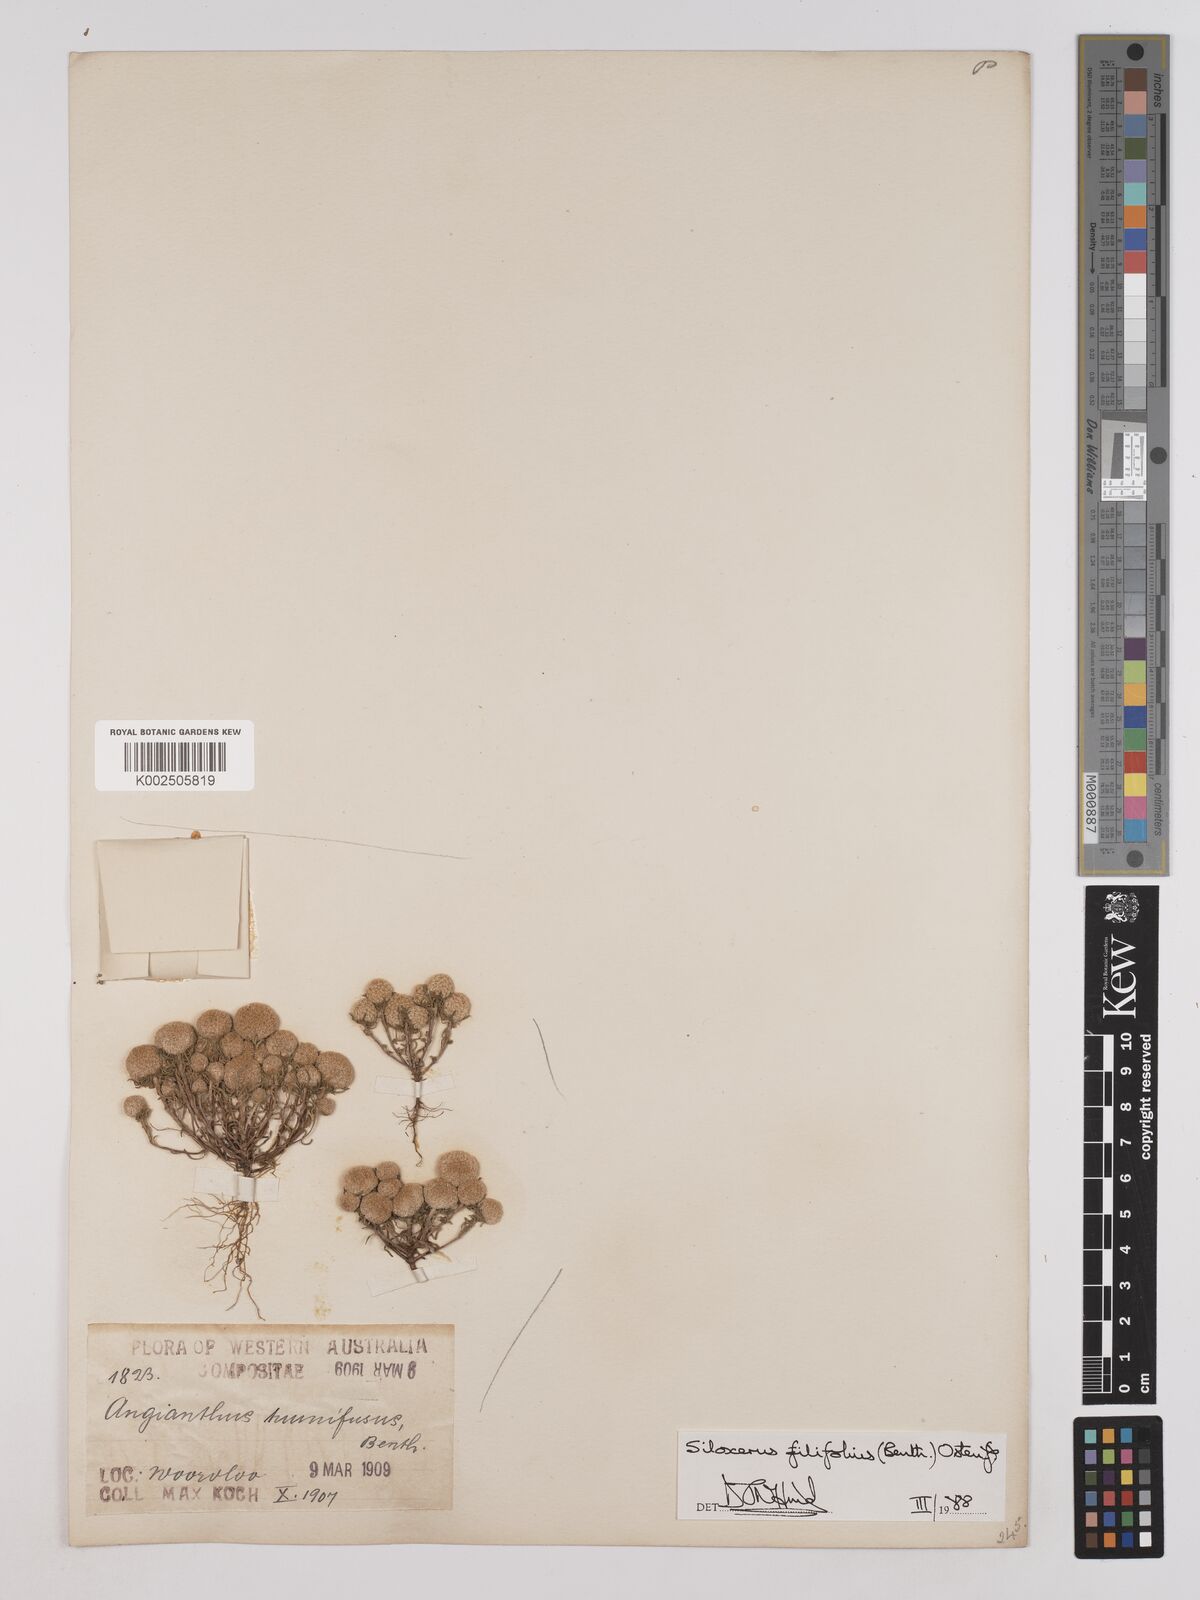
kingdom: Plantae
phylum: Tracheophyta
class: Magnoliopsida
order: Asterales
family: Asteraceae
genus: Siloxerus
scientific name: Siloxerus filifolius
